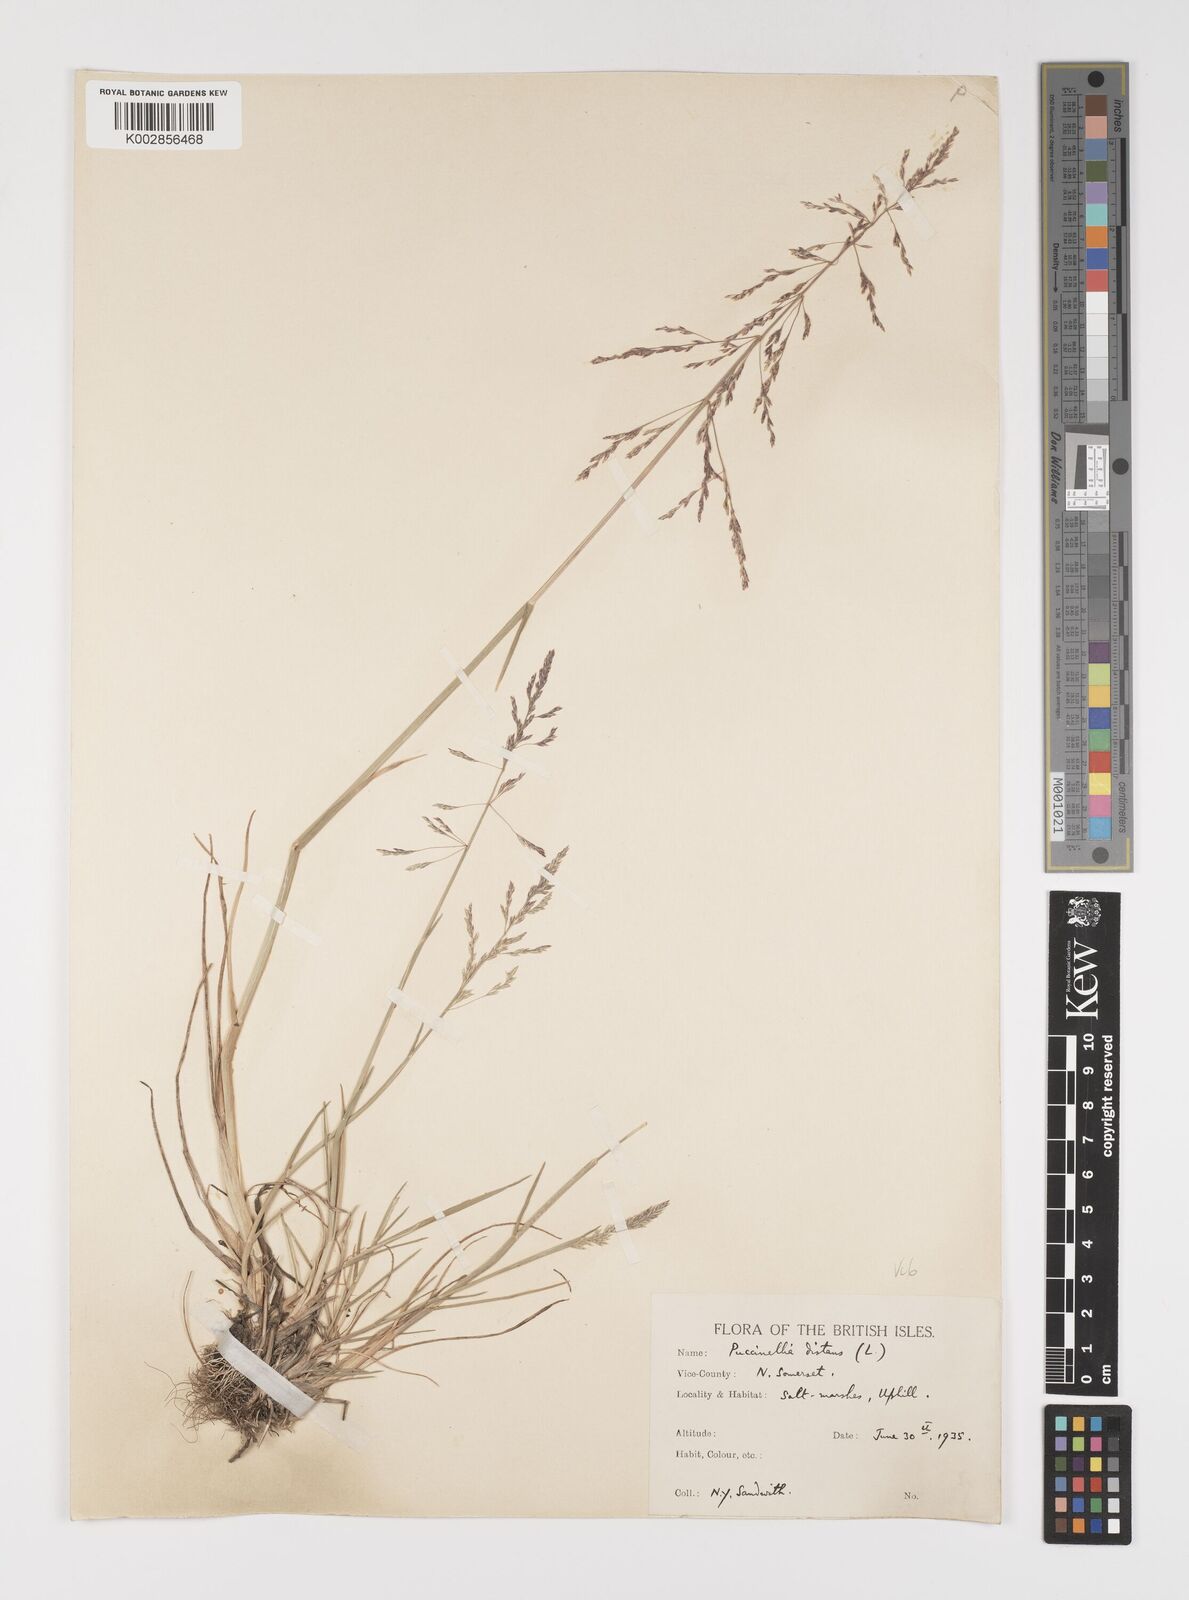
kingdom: Plantae
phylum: Tracheophyta
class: Liliopsida
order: Poales
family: Poaceae
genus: Puccinellia
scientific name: Puccinellia distans
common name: Weeping alkaligrass
